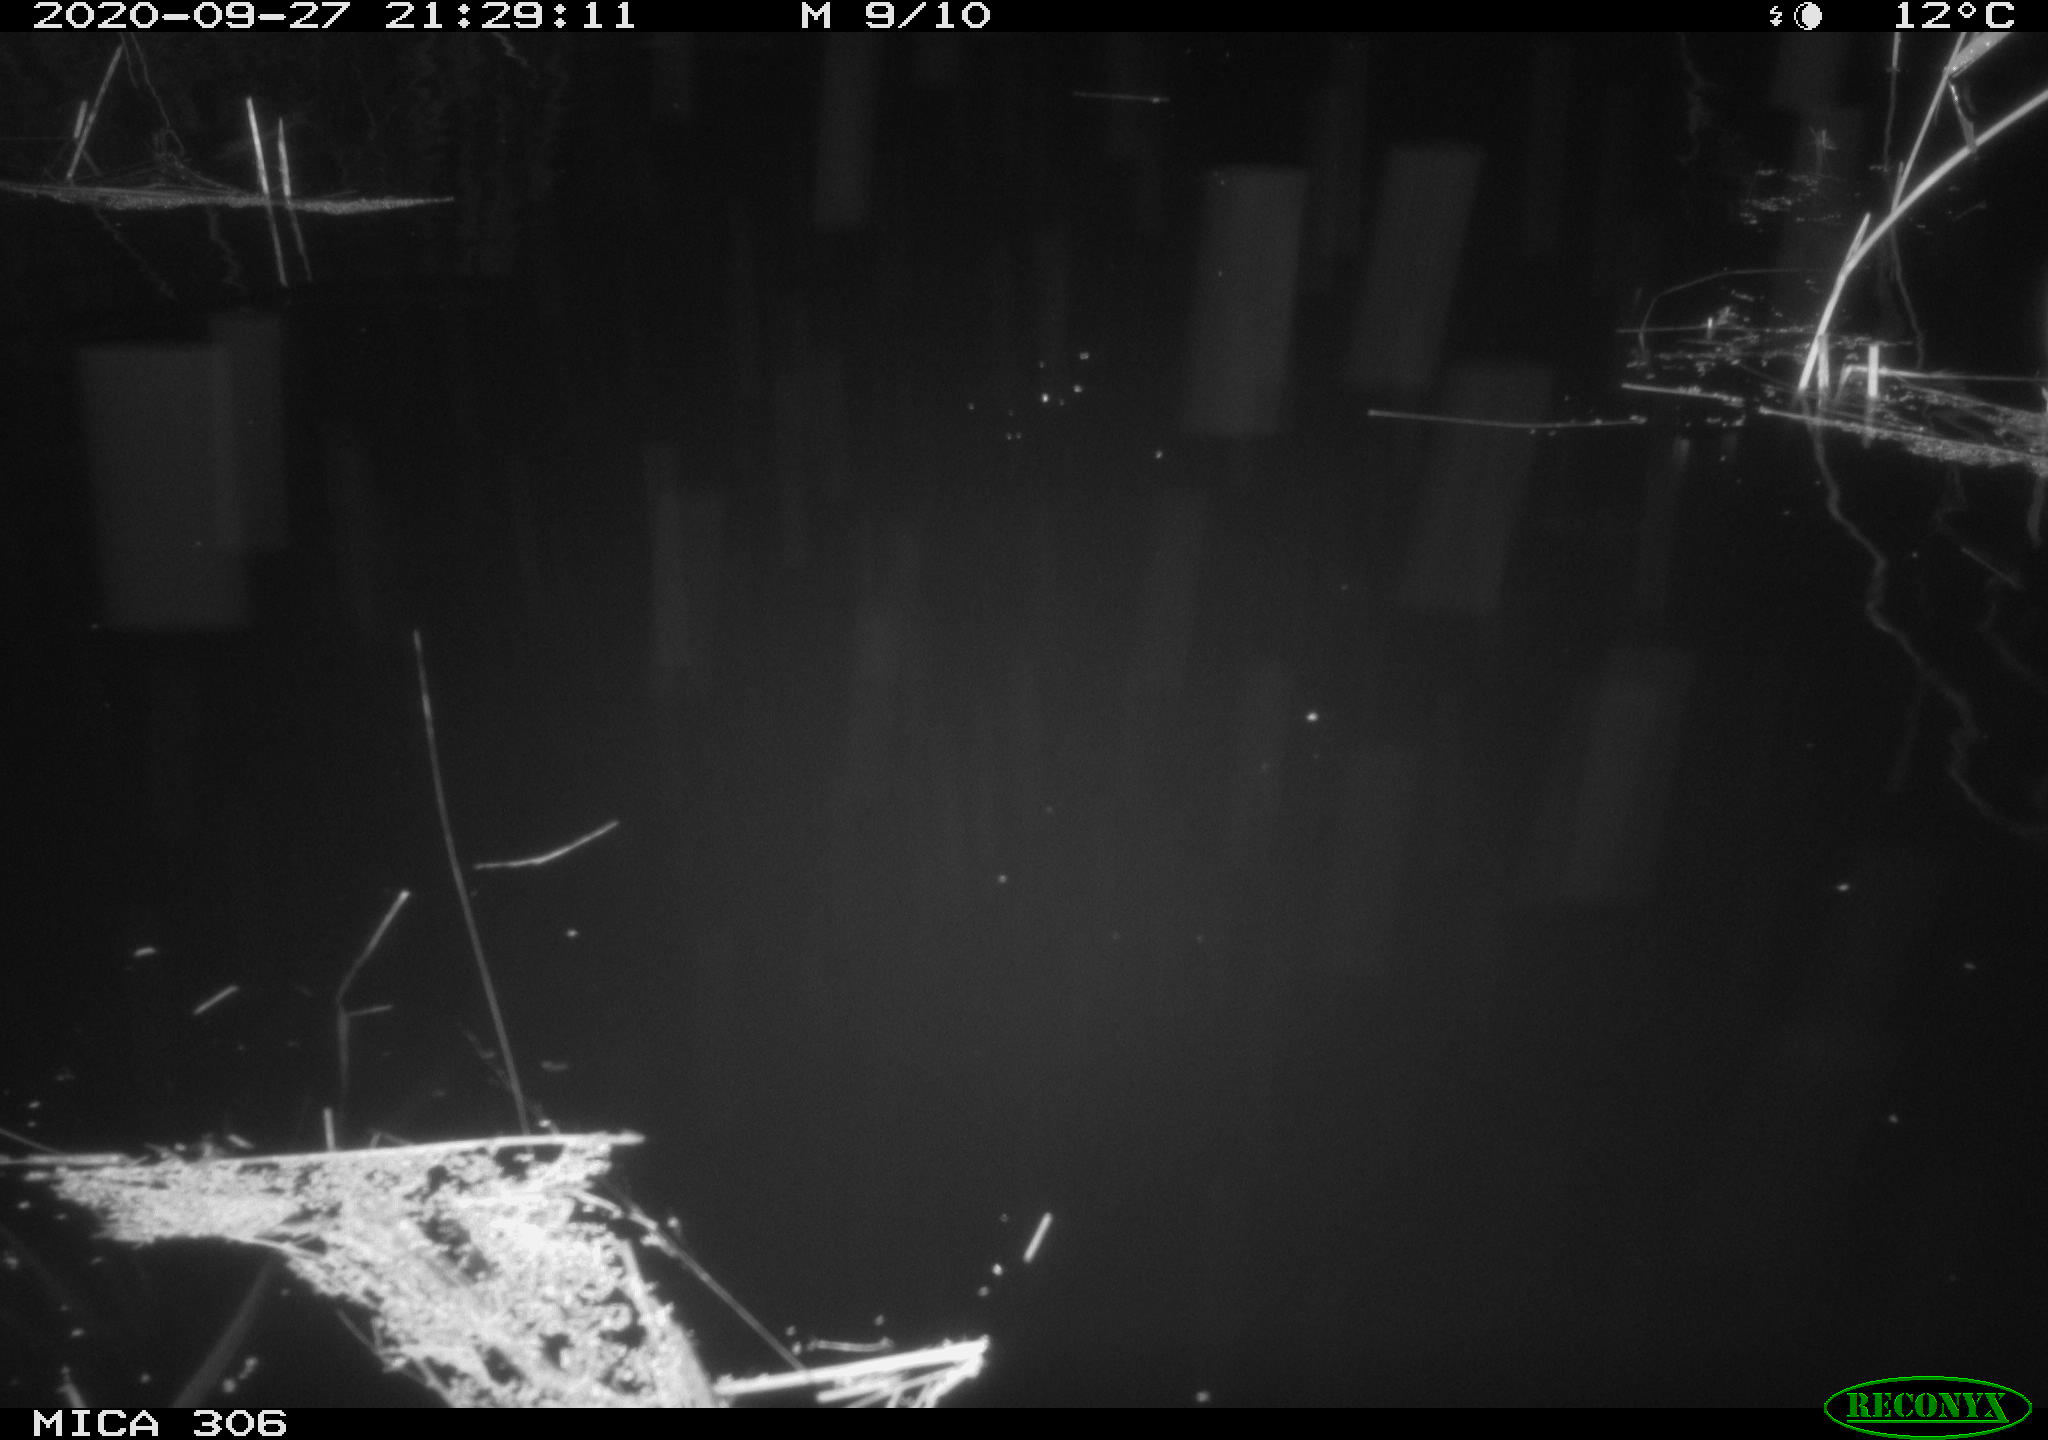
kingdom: Animalia
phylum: Chordata
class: Mammalia
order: Rodentia
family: Muridae
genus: Rattus
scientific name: Rattus norvegicus
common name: Brown rat
